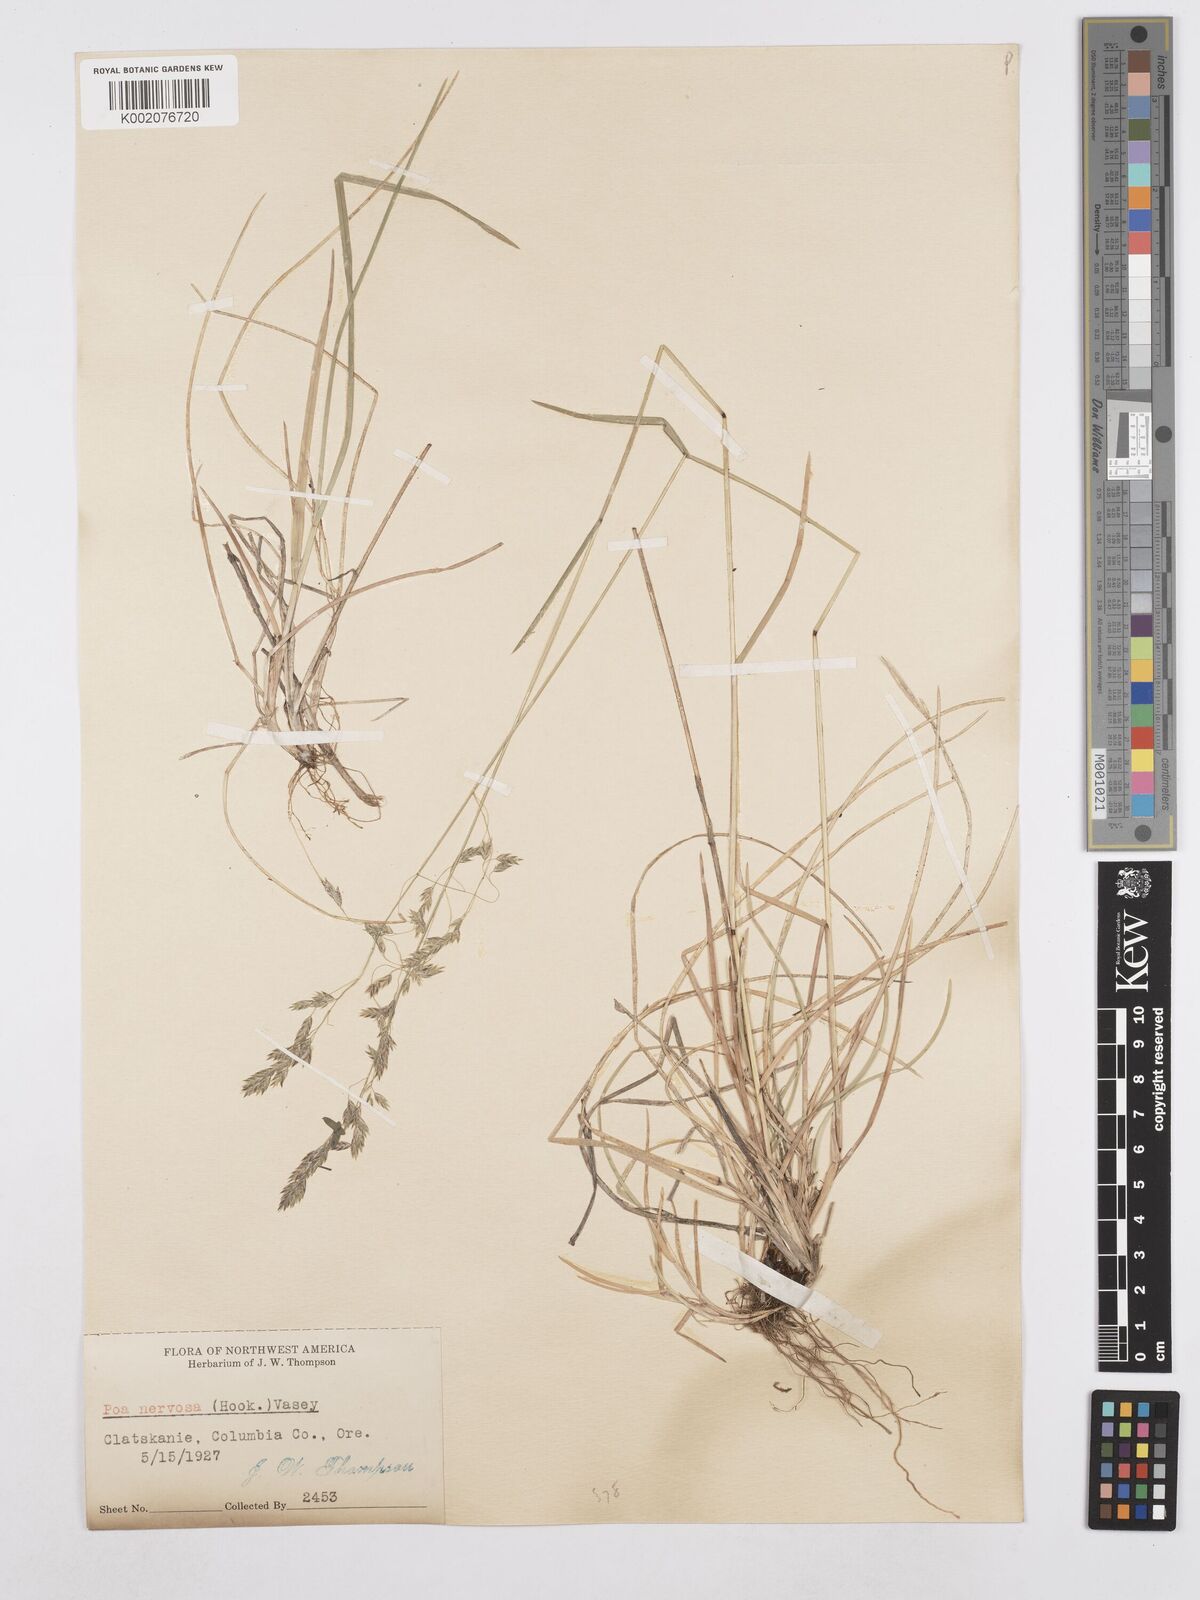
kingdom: Plantae
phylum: Tracheophyta
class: Liliopsida
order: Poales
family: Poaceae
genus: Poa
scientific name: Poa nervosa
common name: Hooker's bluegrass
